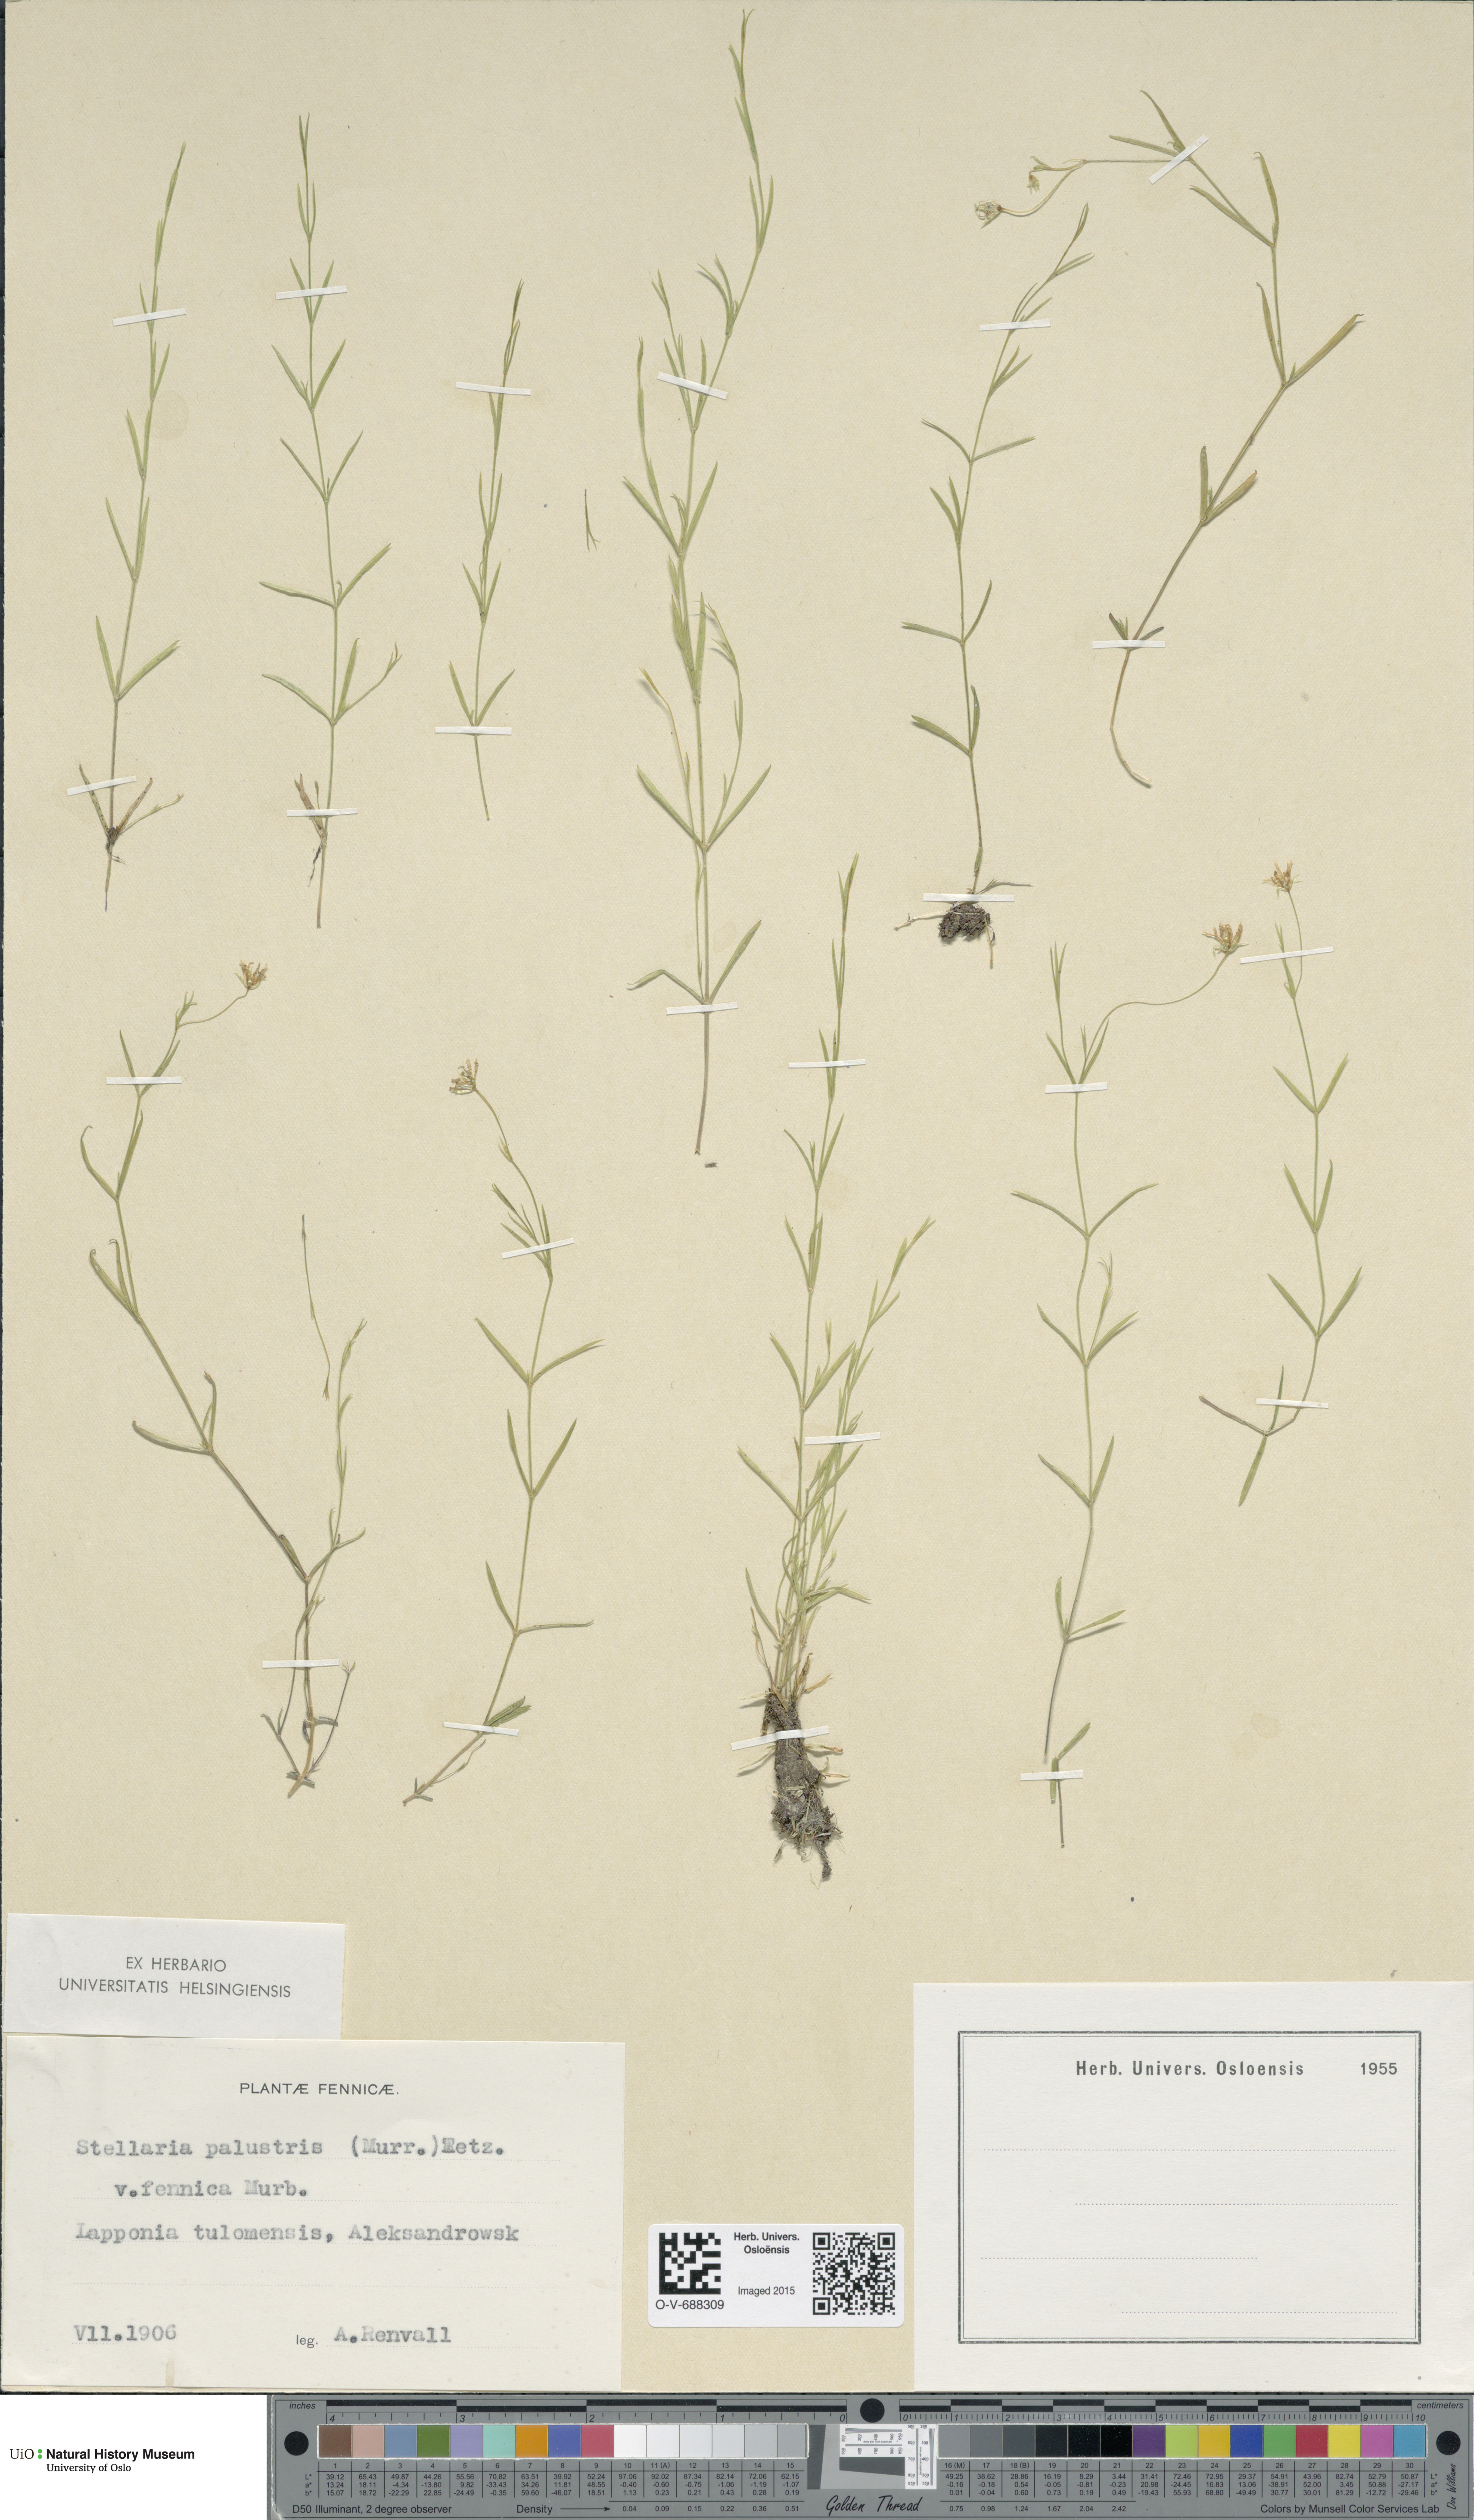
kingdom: Plantae
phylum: Tracheophyta
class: Magnoliopsida
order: Caryophyllales
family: Caryophyllaceae
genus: Stellaria
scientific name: Stellaria palustris
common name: Marsh stitchwort
